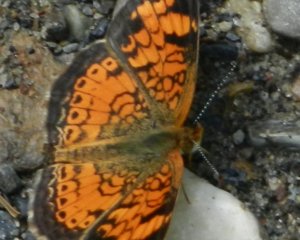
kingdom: Animalia
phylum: Arthropoda
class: Insecta
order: Lepidoptera
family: Nymphalidae
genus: Phyciodes
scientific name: Phyciodes tharos
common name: Pearl Crescent
